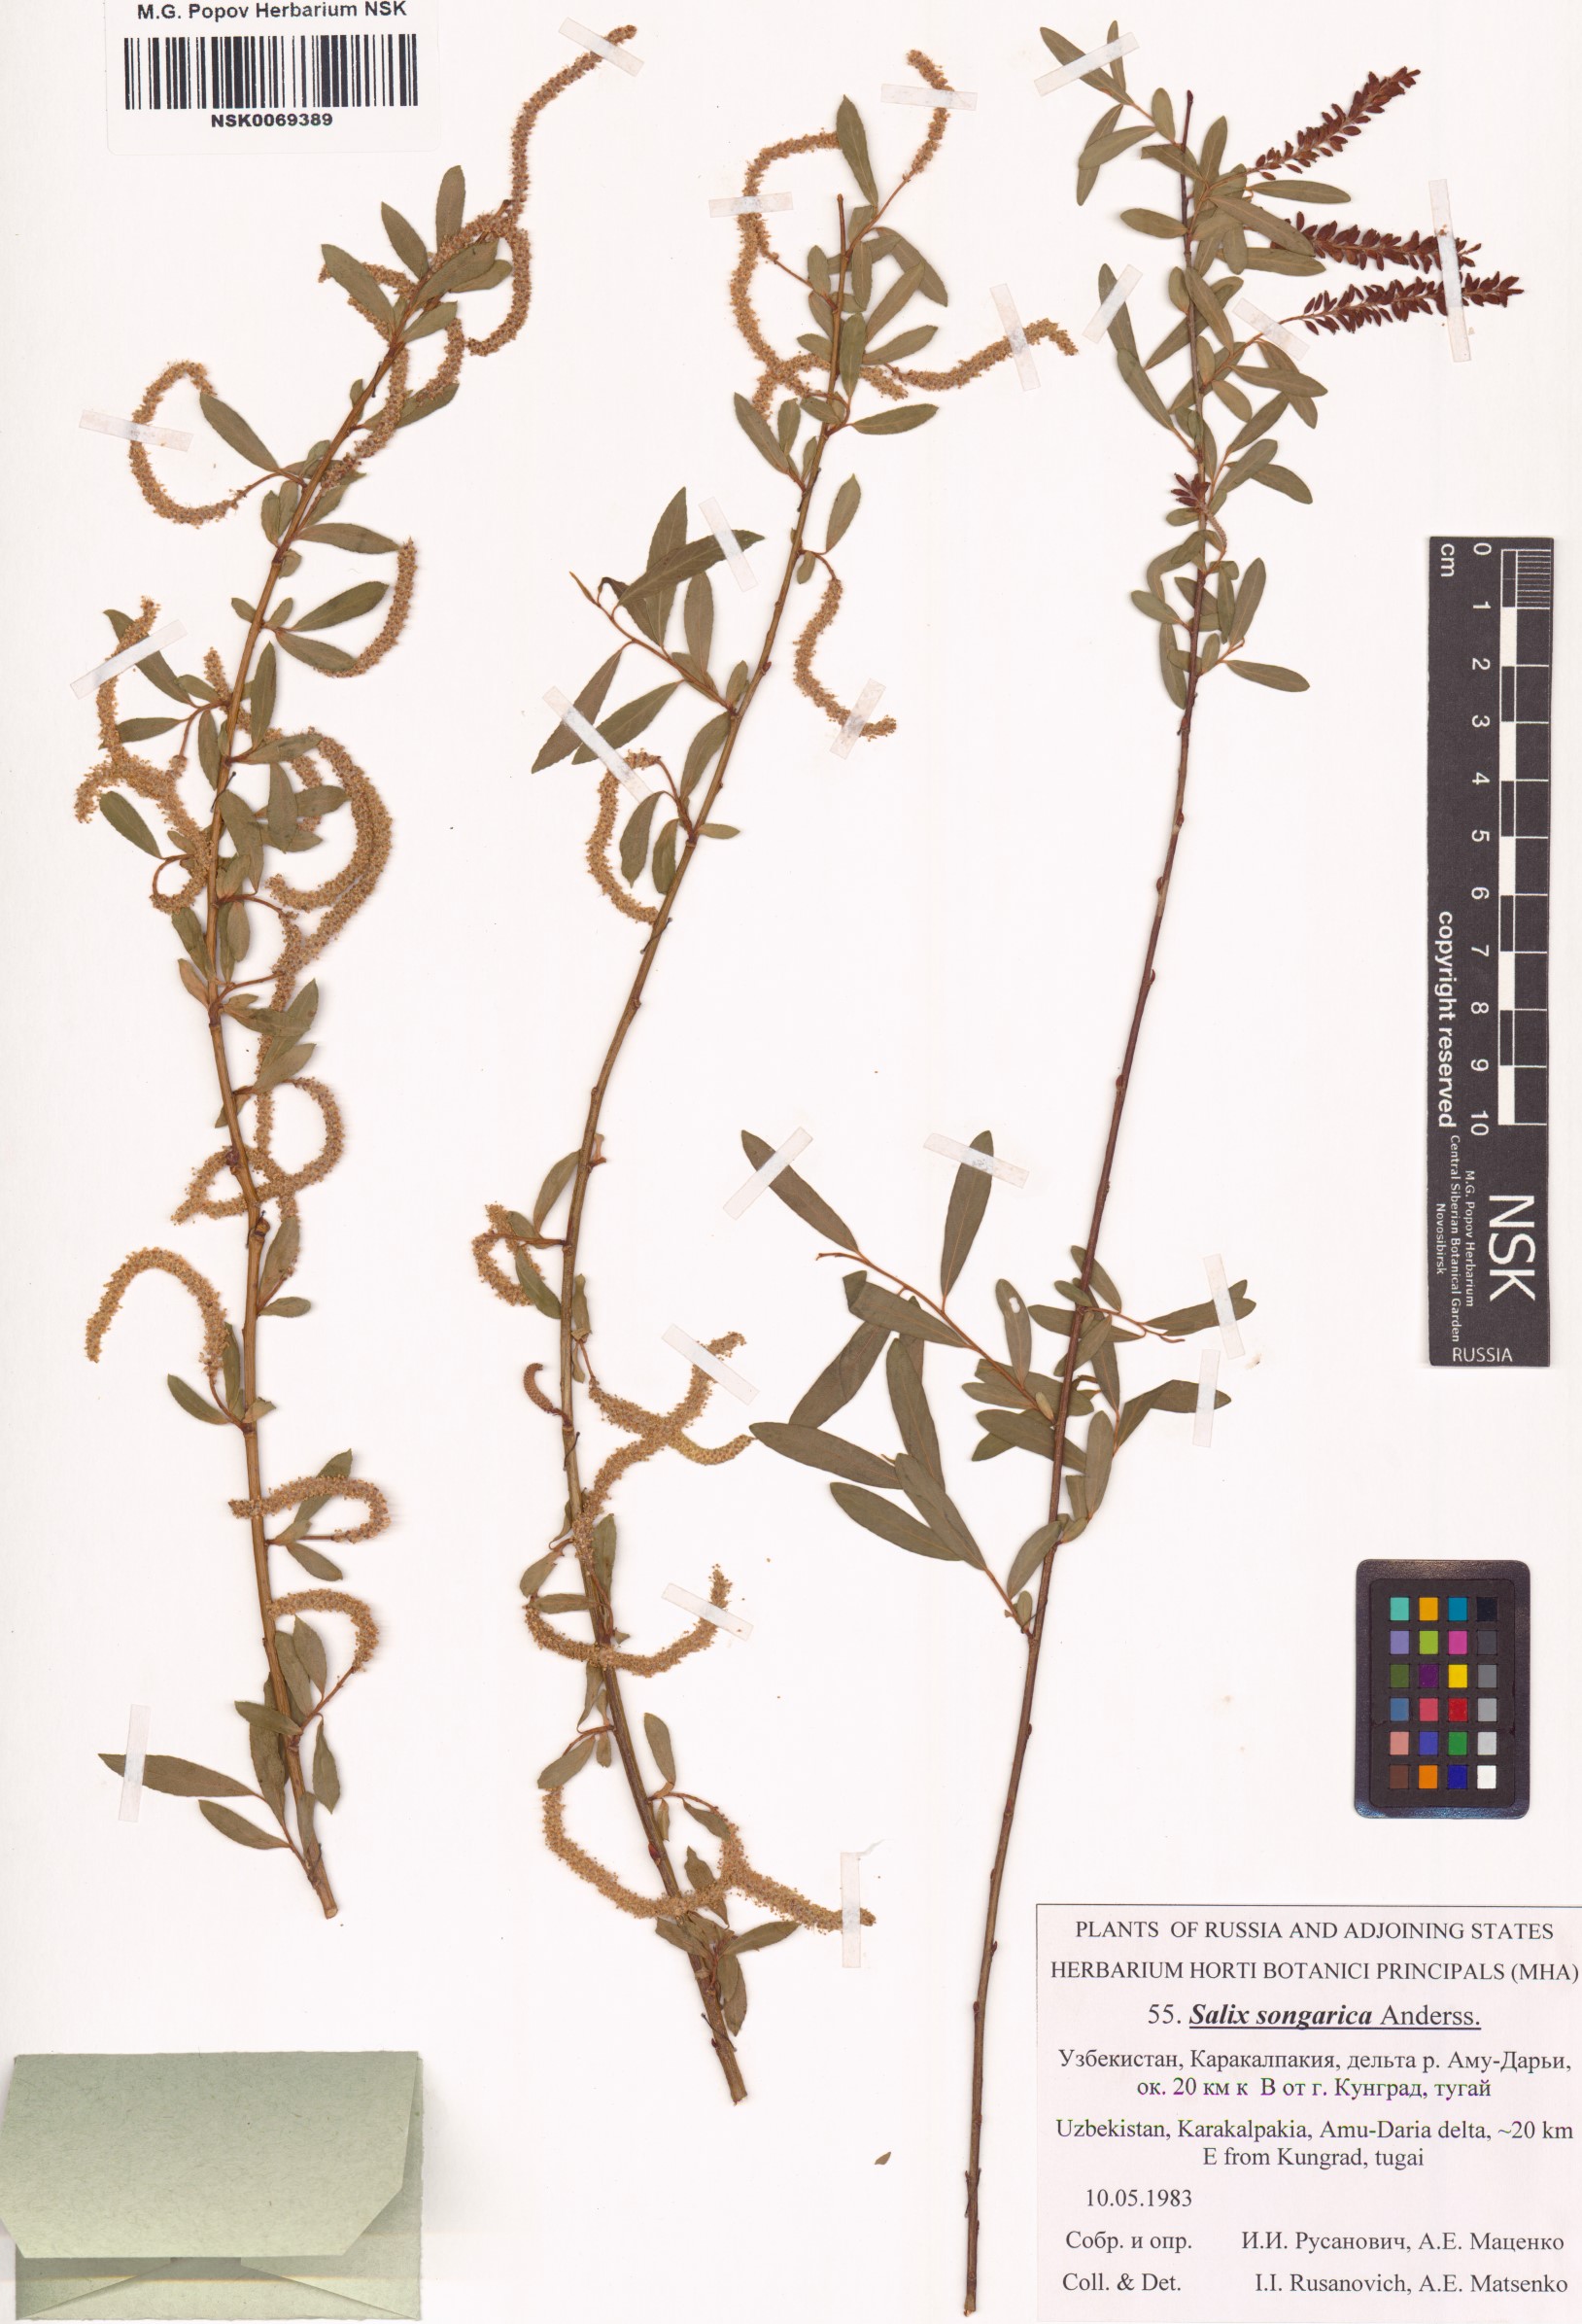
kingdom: Plantae
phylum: Tracheophyta
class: Magnoliopsida
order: Malpighiales
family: Salicaceae
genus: Salix
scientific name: Salix songarica
